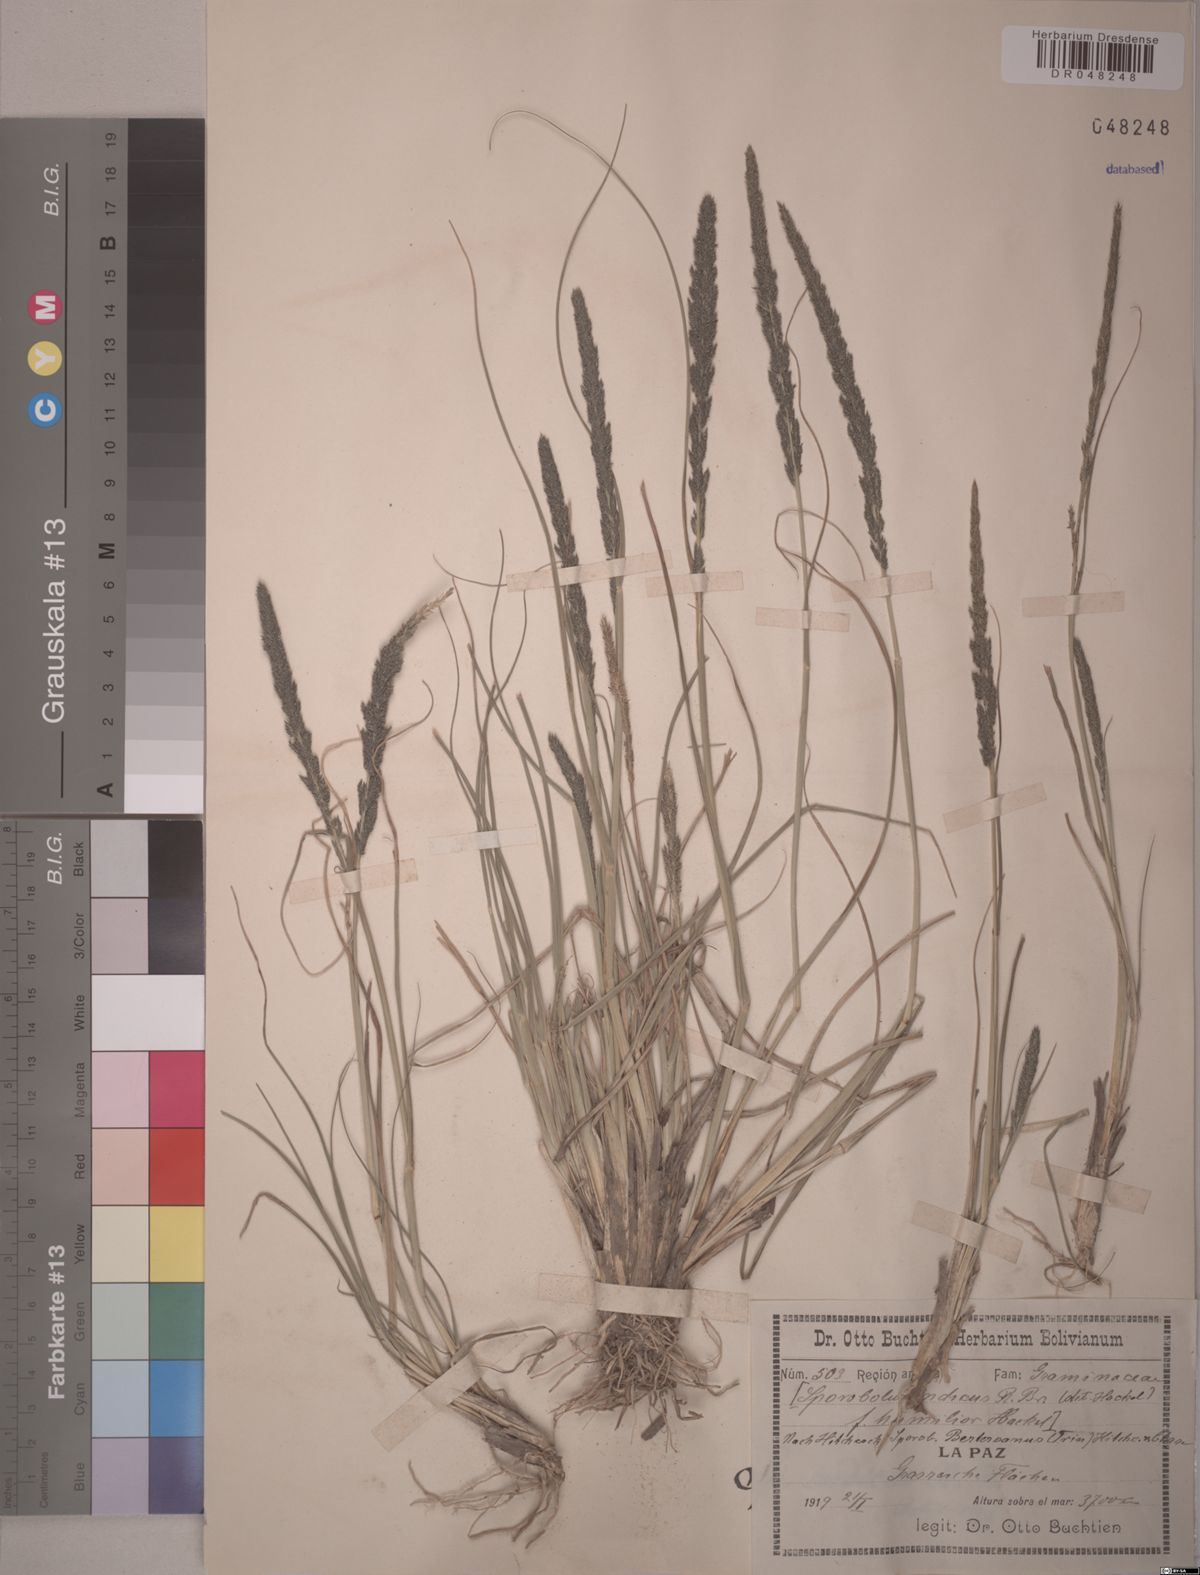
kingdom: Plantae
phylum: Tracheophyta
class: Liliopsida
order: Poales
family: Poaceae
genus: Sporobolus
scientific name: Sporobolus indicus
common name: Smut grass
